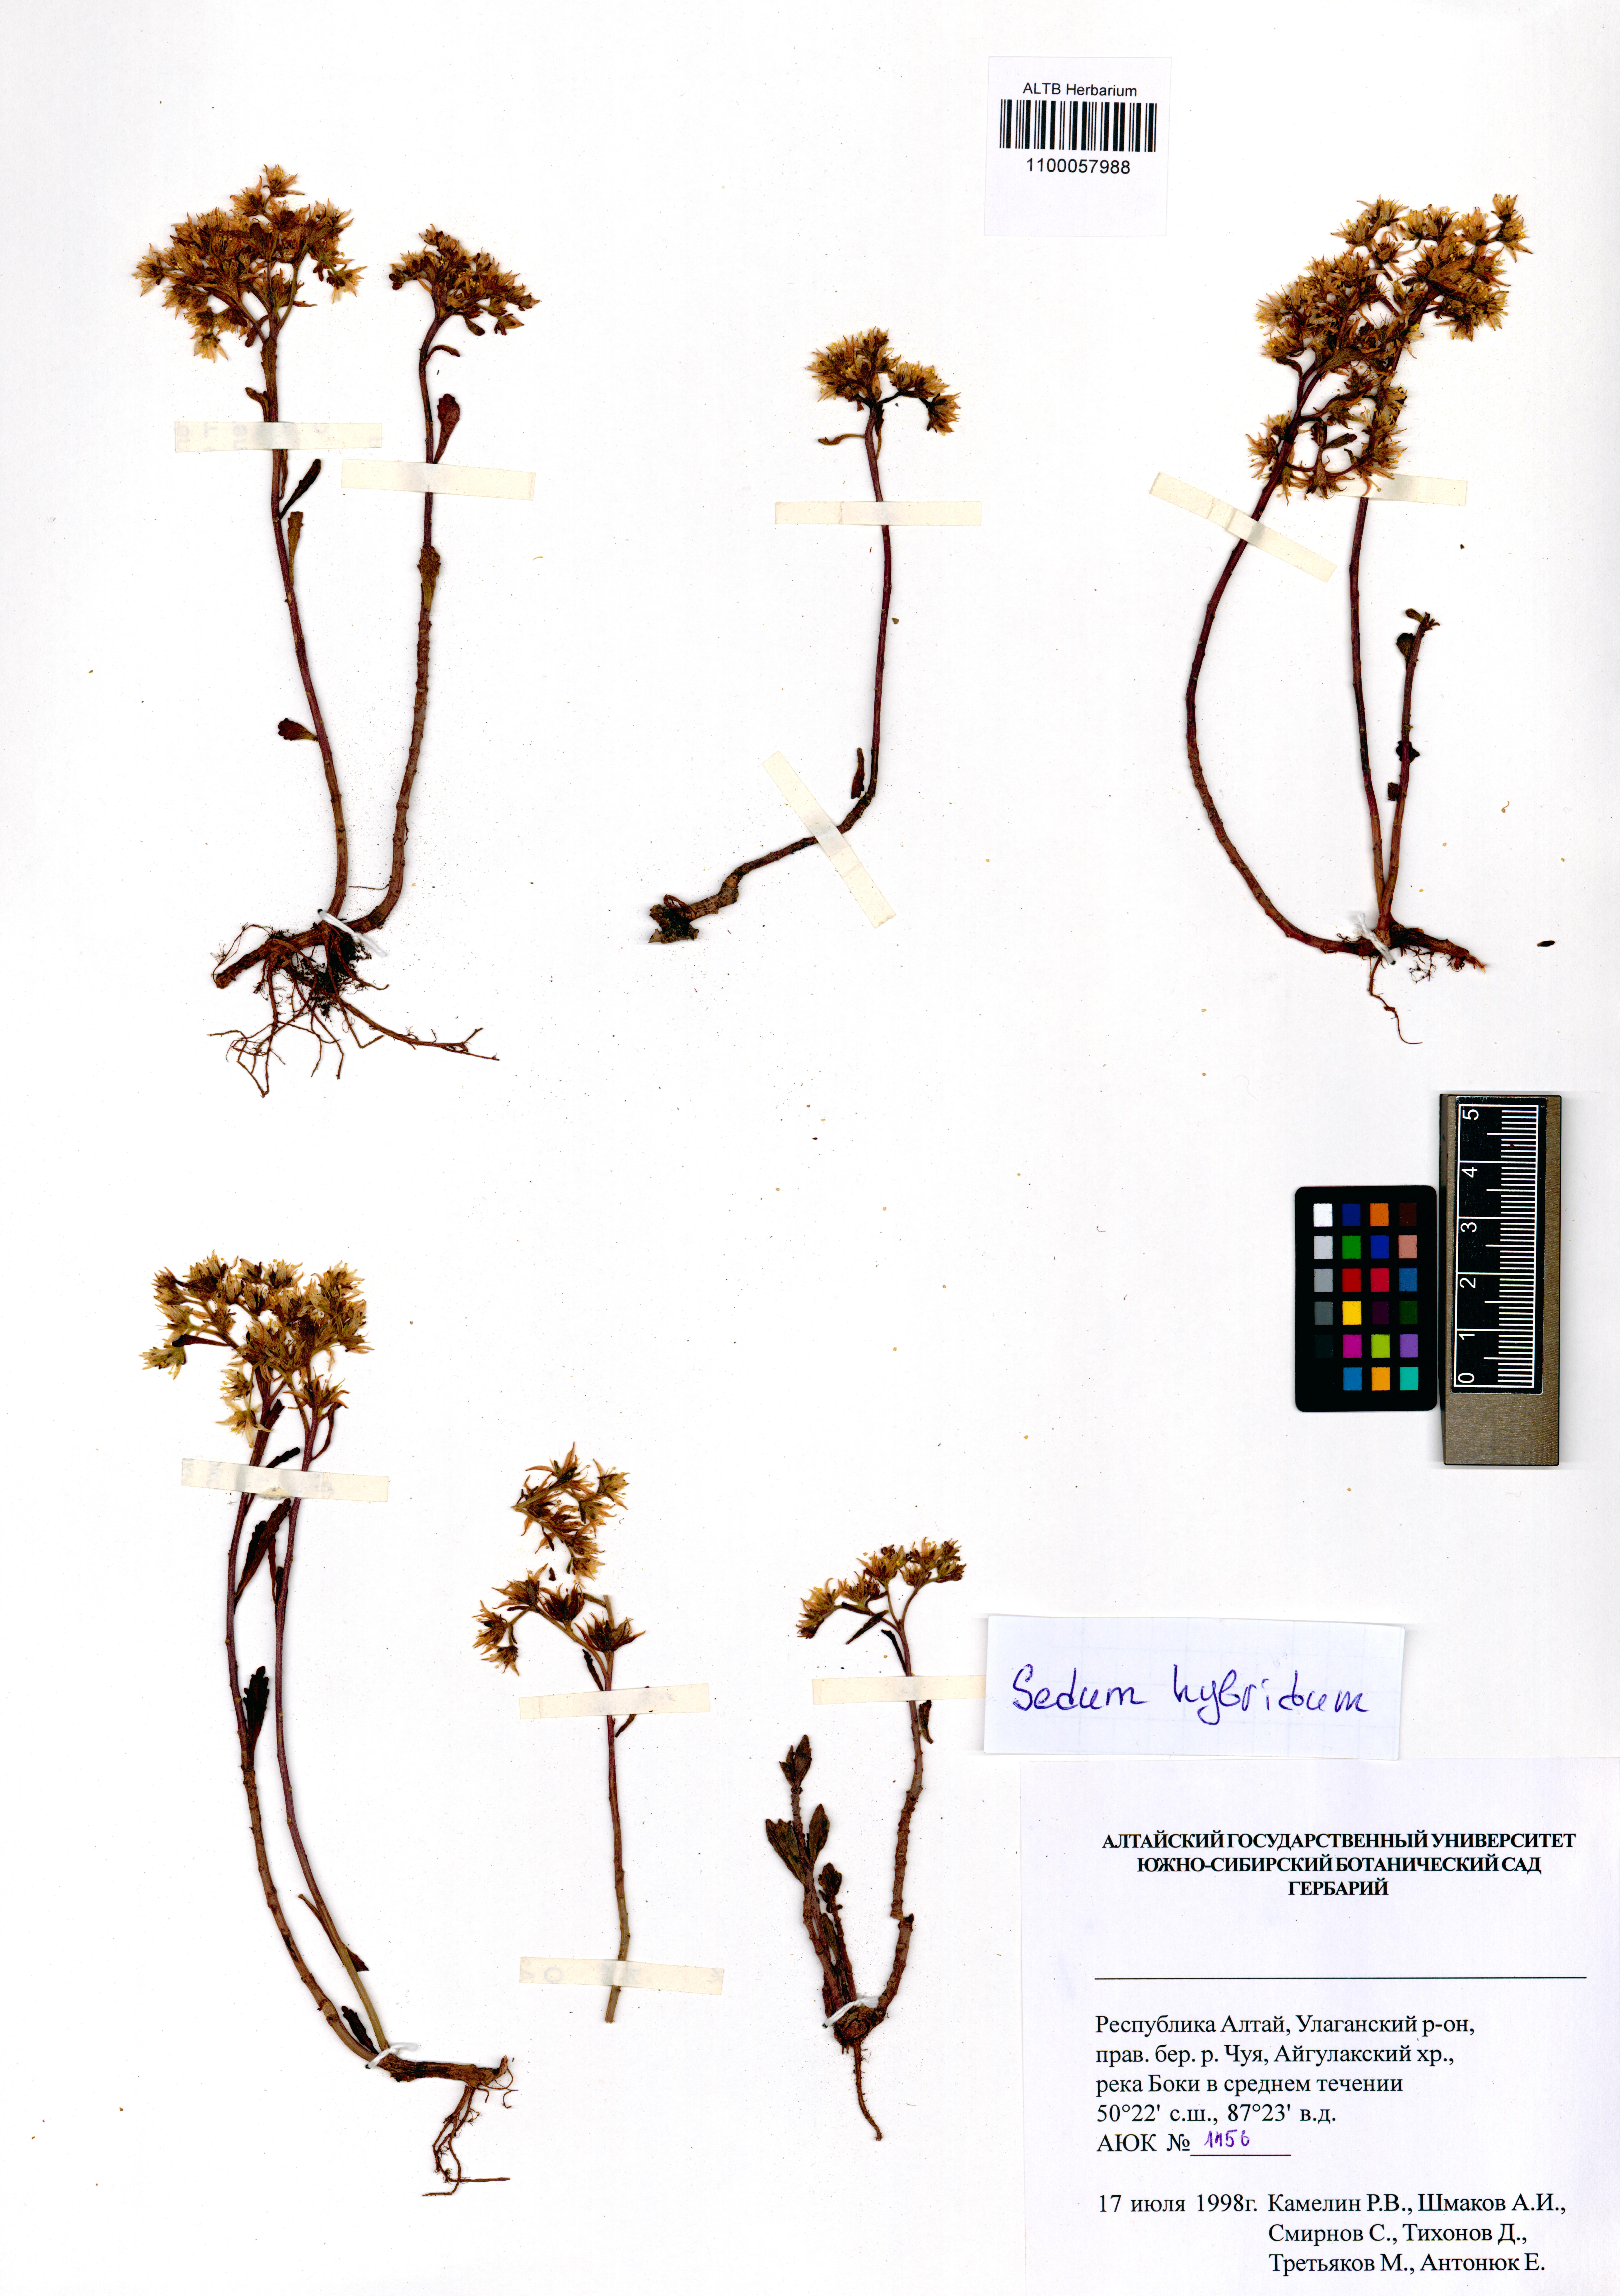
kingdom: Plantae
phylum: Tracheophyta
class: Magnoliopsida
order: Saxifragales
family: Crassulaceae
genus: Phedimus
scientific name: Phedimus hybridus
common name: Hybrid stonecrop
